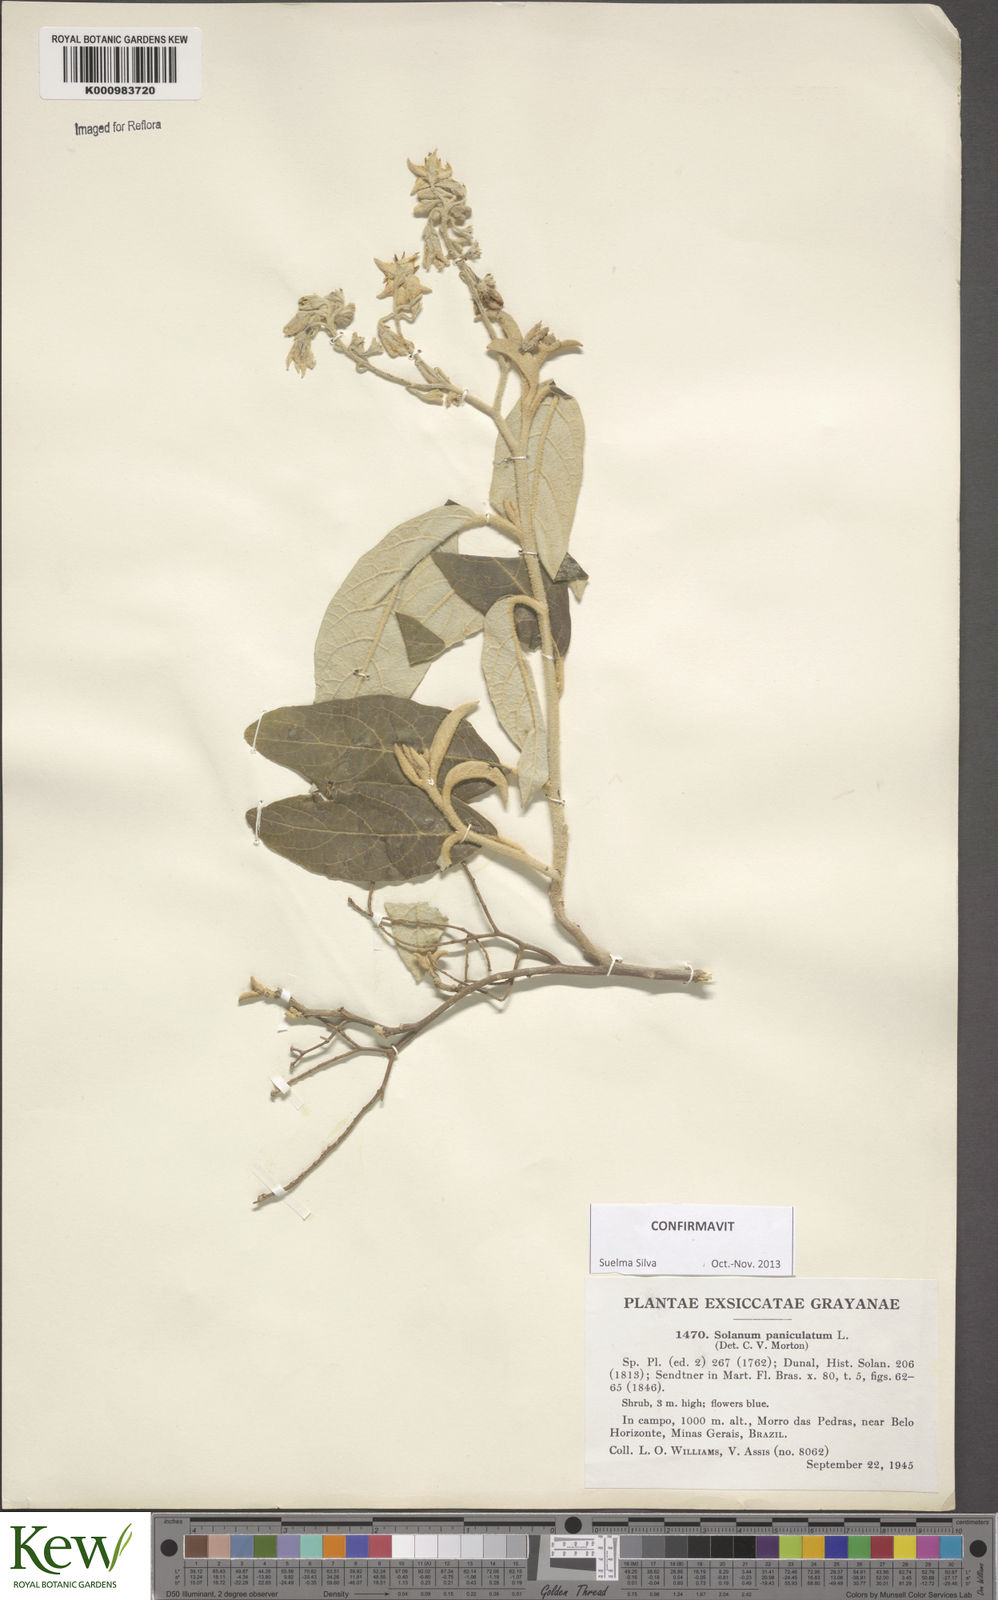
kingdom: Plantae
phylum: Tracheophyta
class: Magnoliopsida
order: Solanales
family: Solanaceae
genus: Solanum
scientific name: Solanum paniculatum
